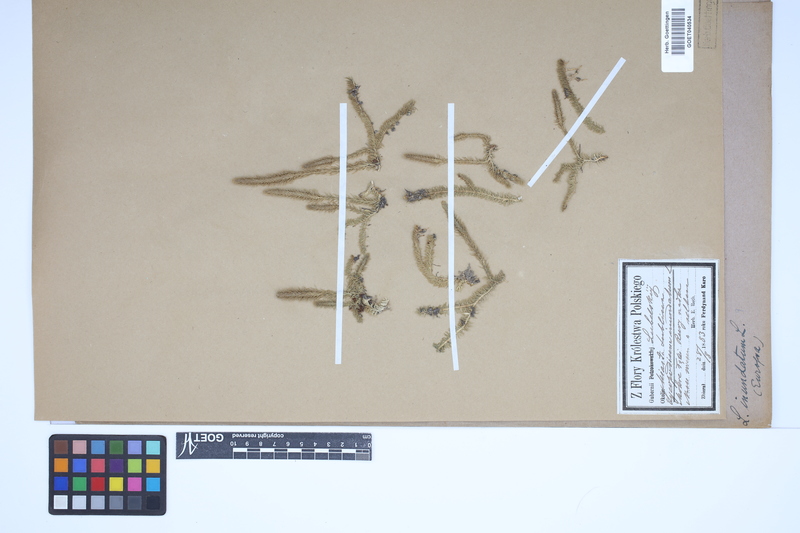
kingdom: Plantae
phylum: Tracheophyta
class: Lycopodiopsida
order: Lycopodiales
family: Lycopodiaceae
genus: Lycopodiella
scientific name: Lycopodiella inundata
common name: Marsh clubmoss
